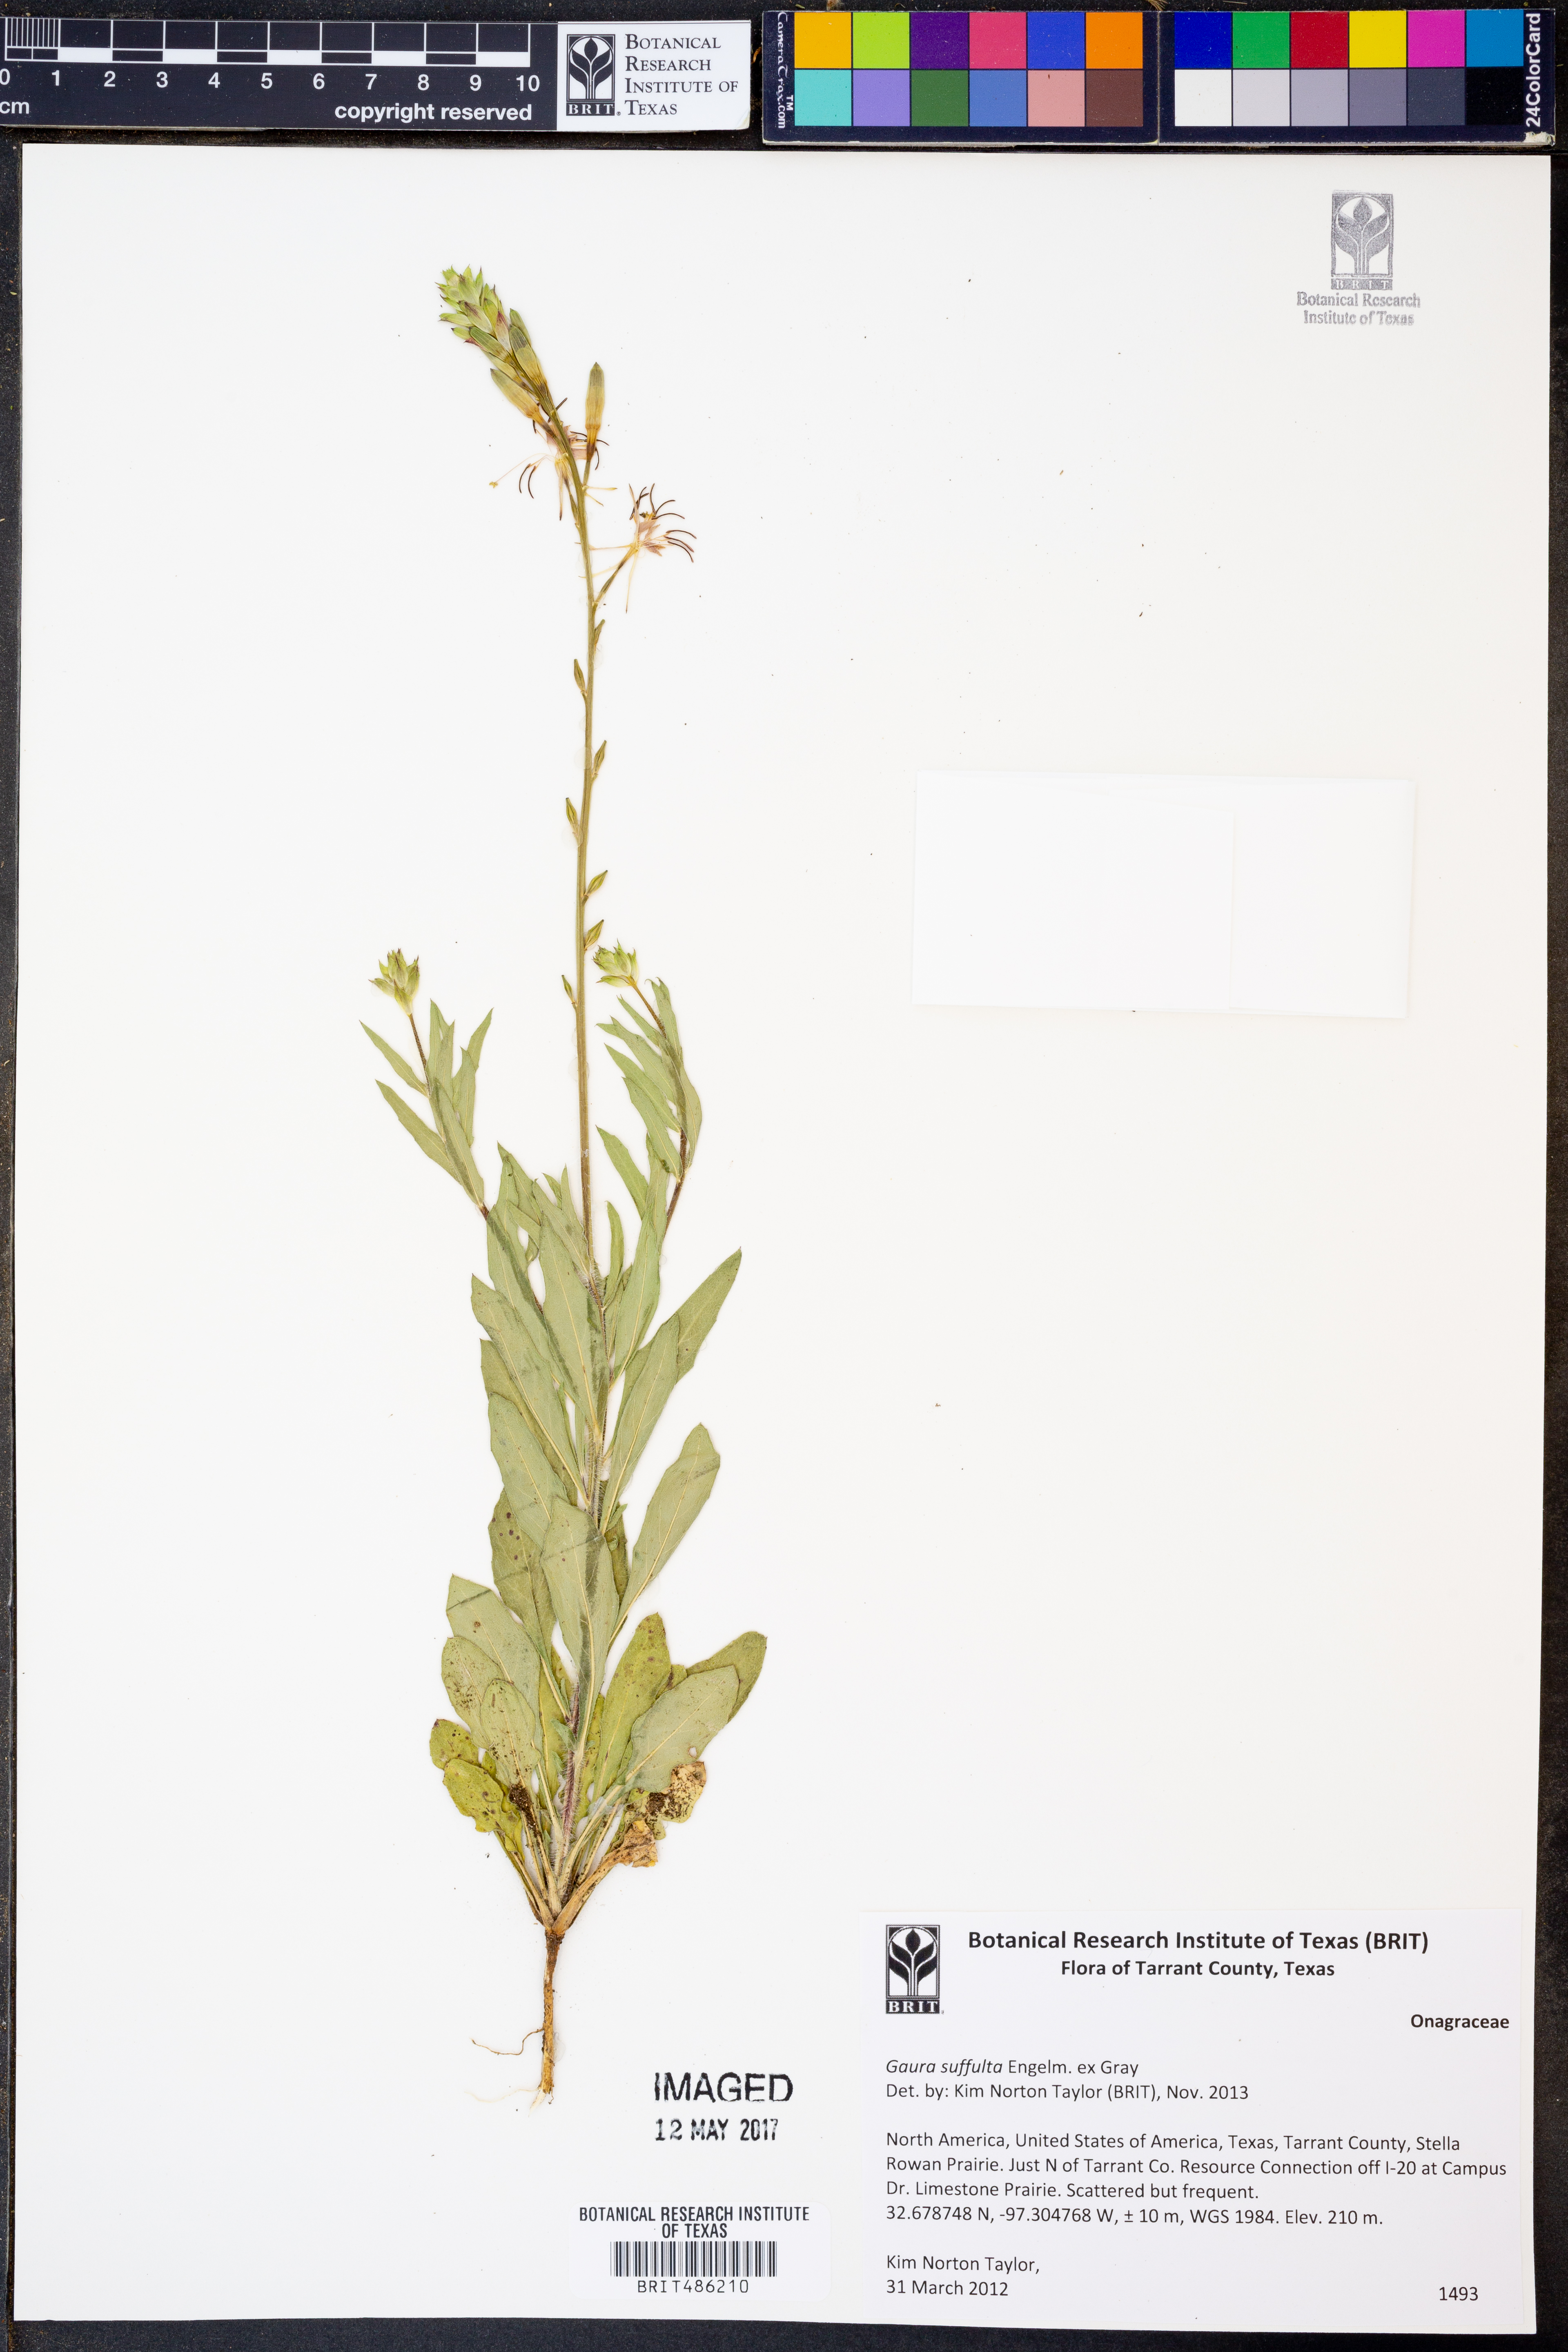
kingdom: Plantae
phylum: Tracheophyta
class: Magnoliopsida
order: Myrtales
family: Onagraceae
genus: Oenothera
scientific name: Oenothera Gaura suffulta
